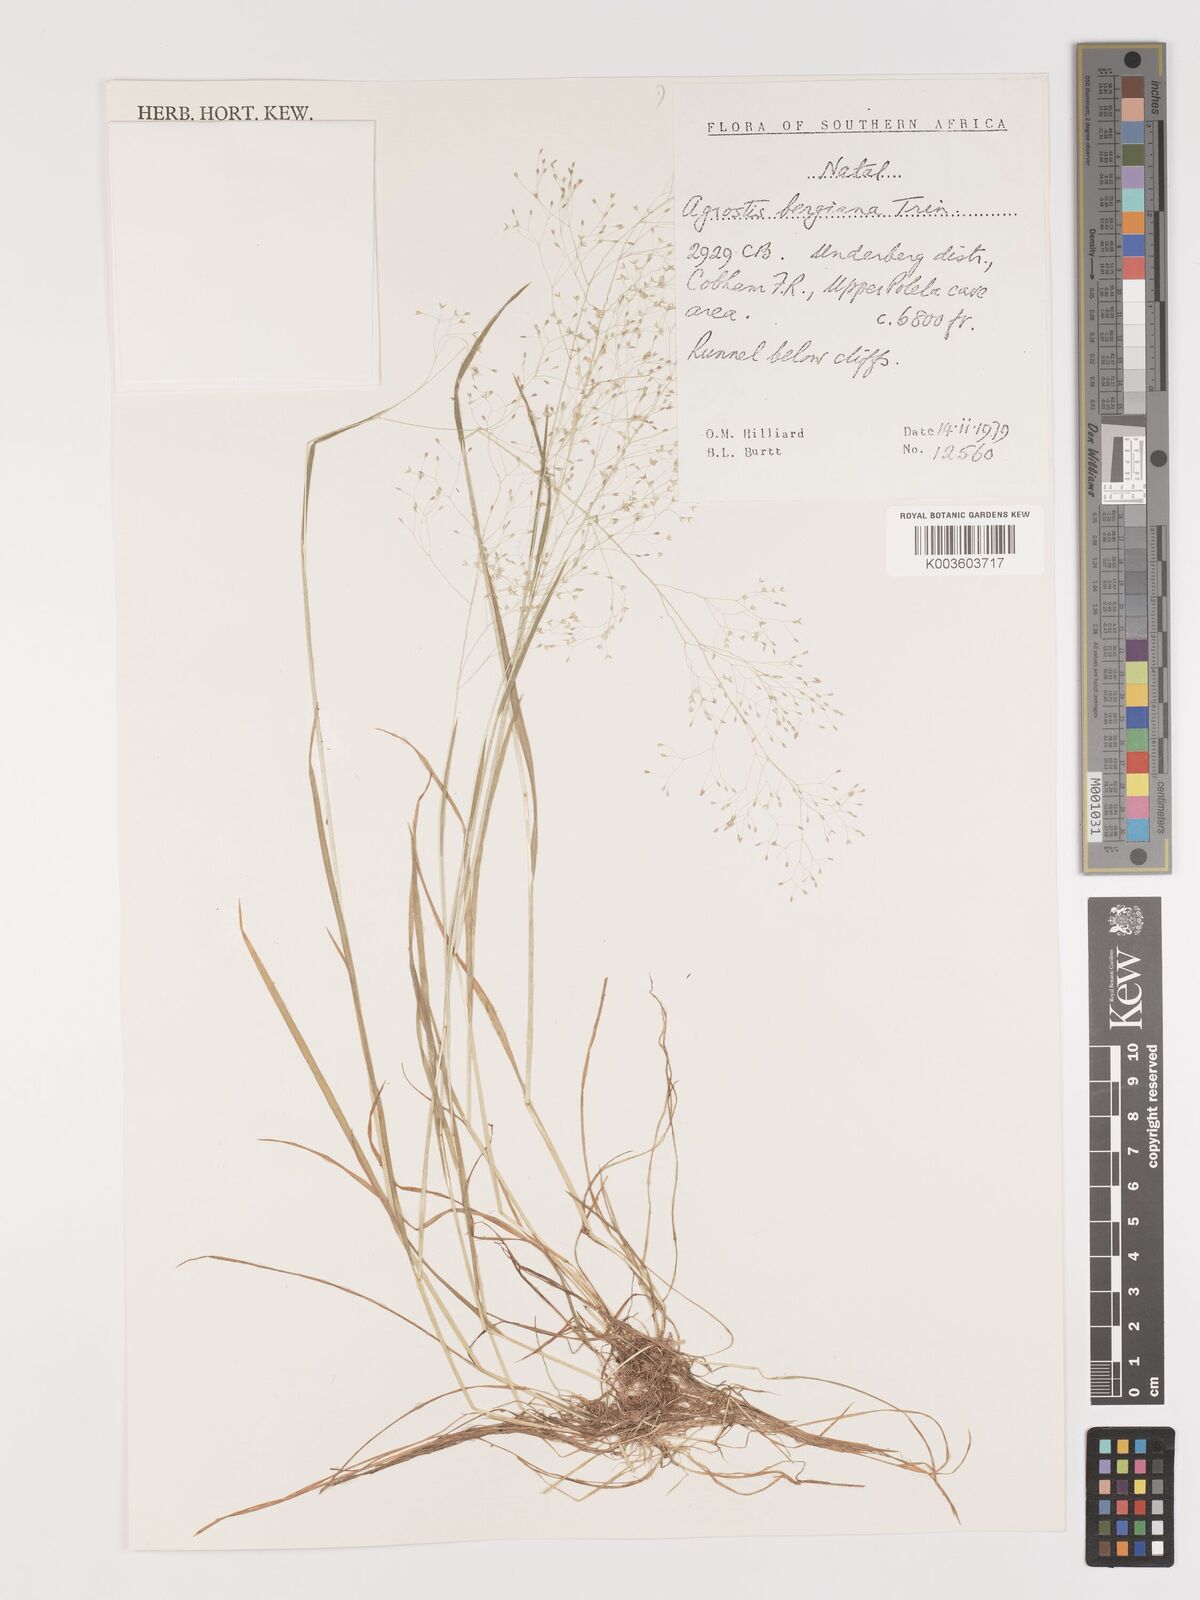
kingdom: Plantae
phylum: Tracheophyta
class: Liliopsida
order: Poales
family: Poaceae
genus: Agrostis
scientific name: Agrostis bergiana
